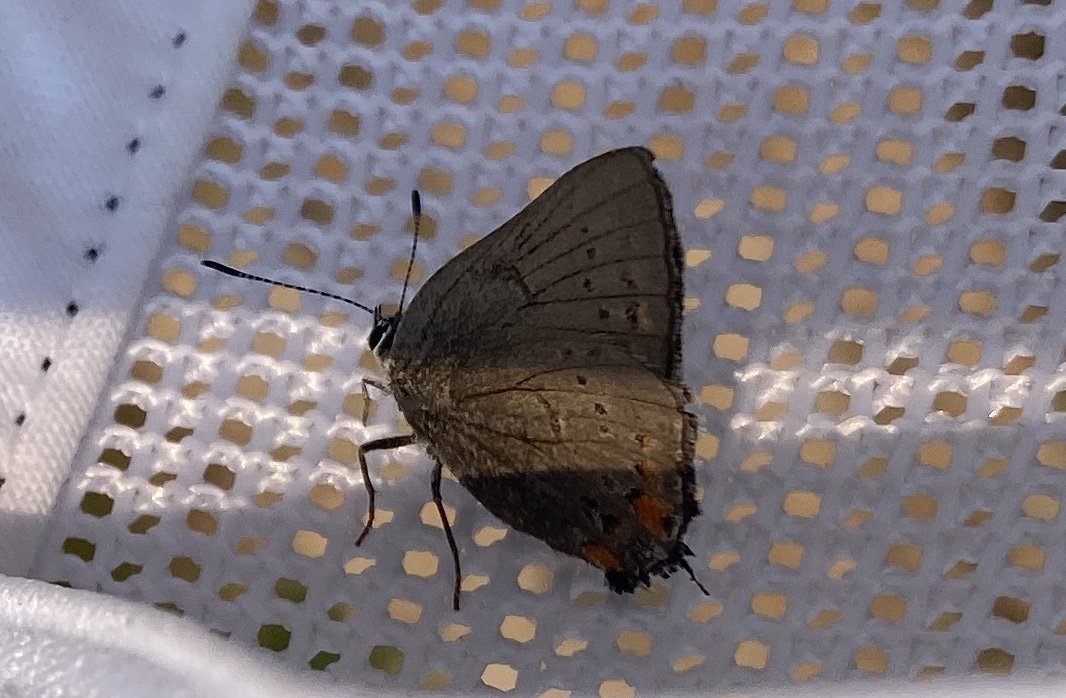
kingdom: Animalia
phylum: Arthropoda
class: Insecta
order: Lepidoptera
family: Lycaenidae
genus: Strymon
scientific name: Strymon acadica
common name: California Hairstreak
